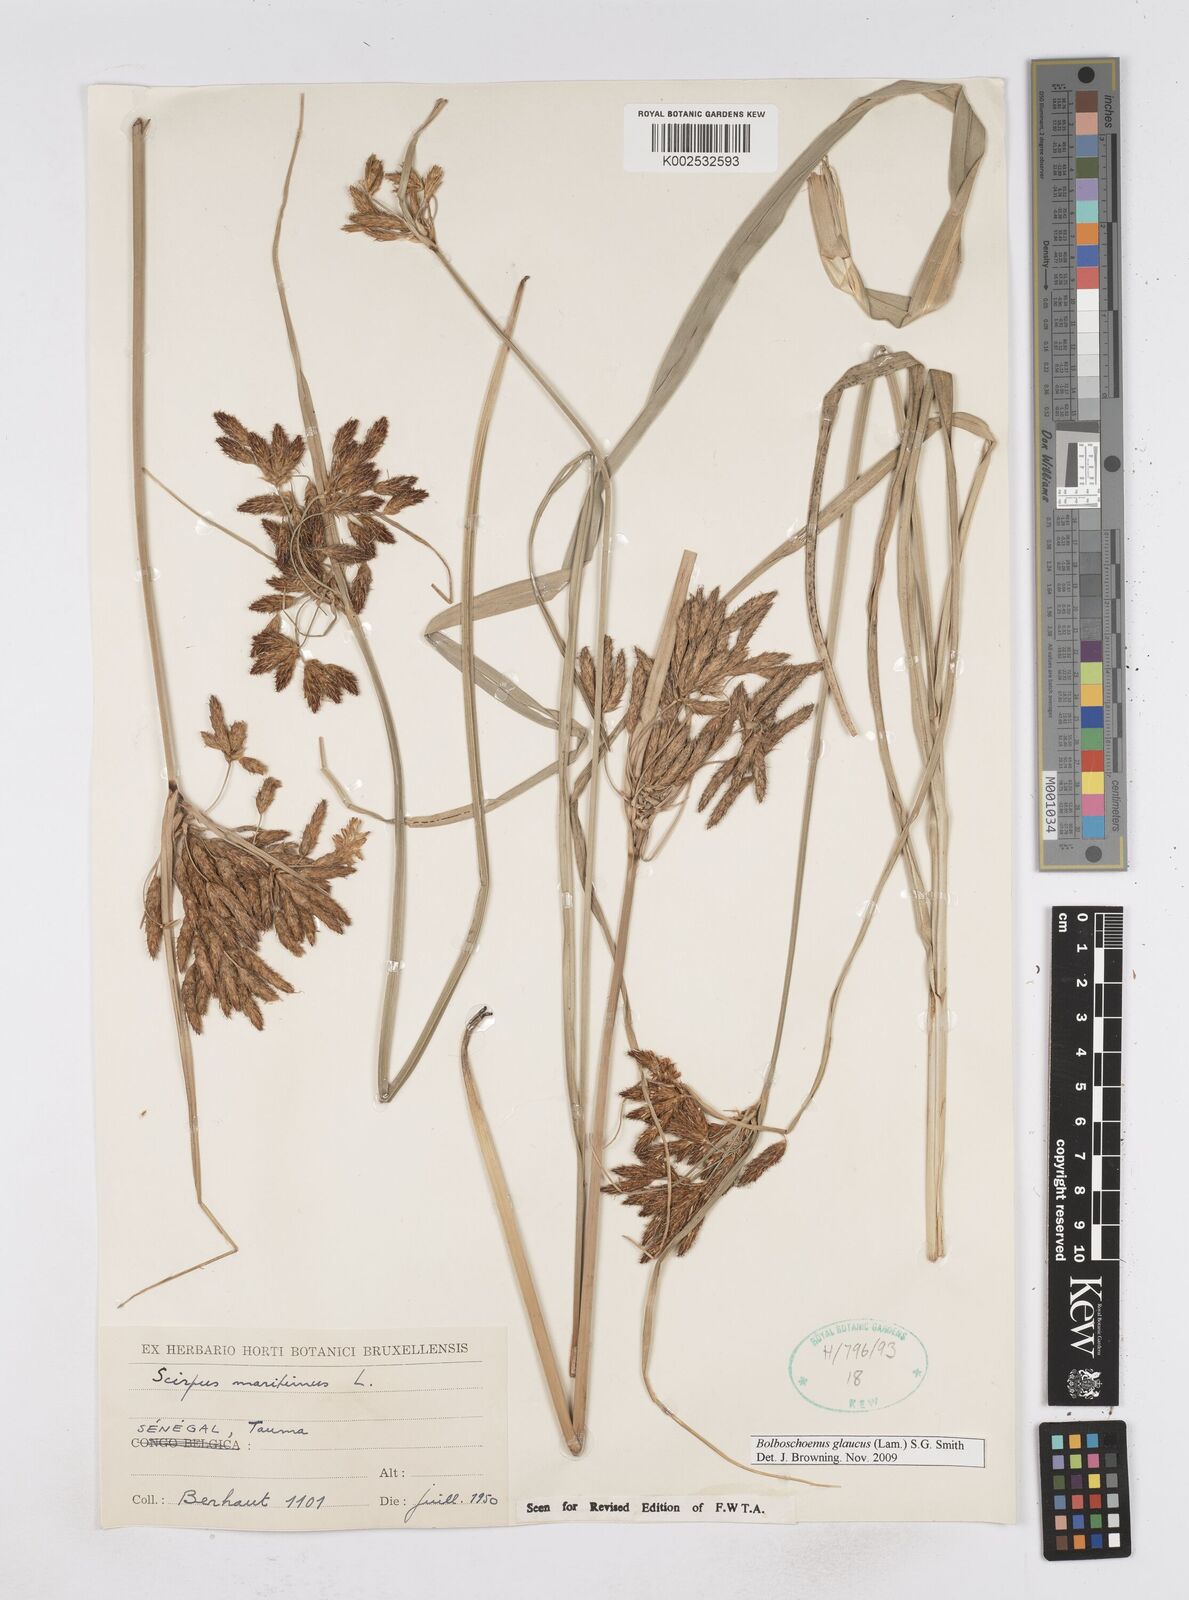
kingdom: Plantae
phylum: Tracheophyta
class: Liliopsida
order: Poales
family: Cyperaceae
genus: Bolboschoenus
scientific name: Bolboschoenus glaucus
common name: Tuberous bulrush
